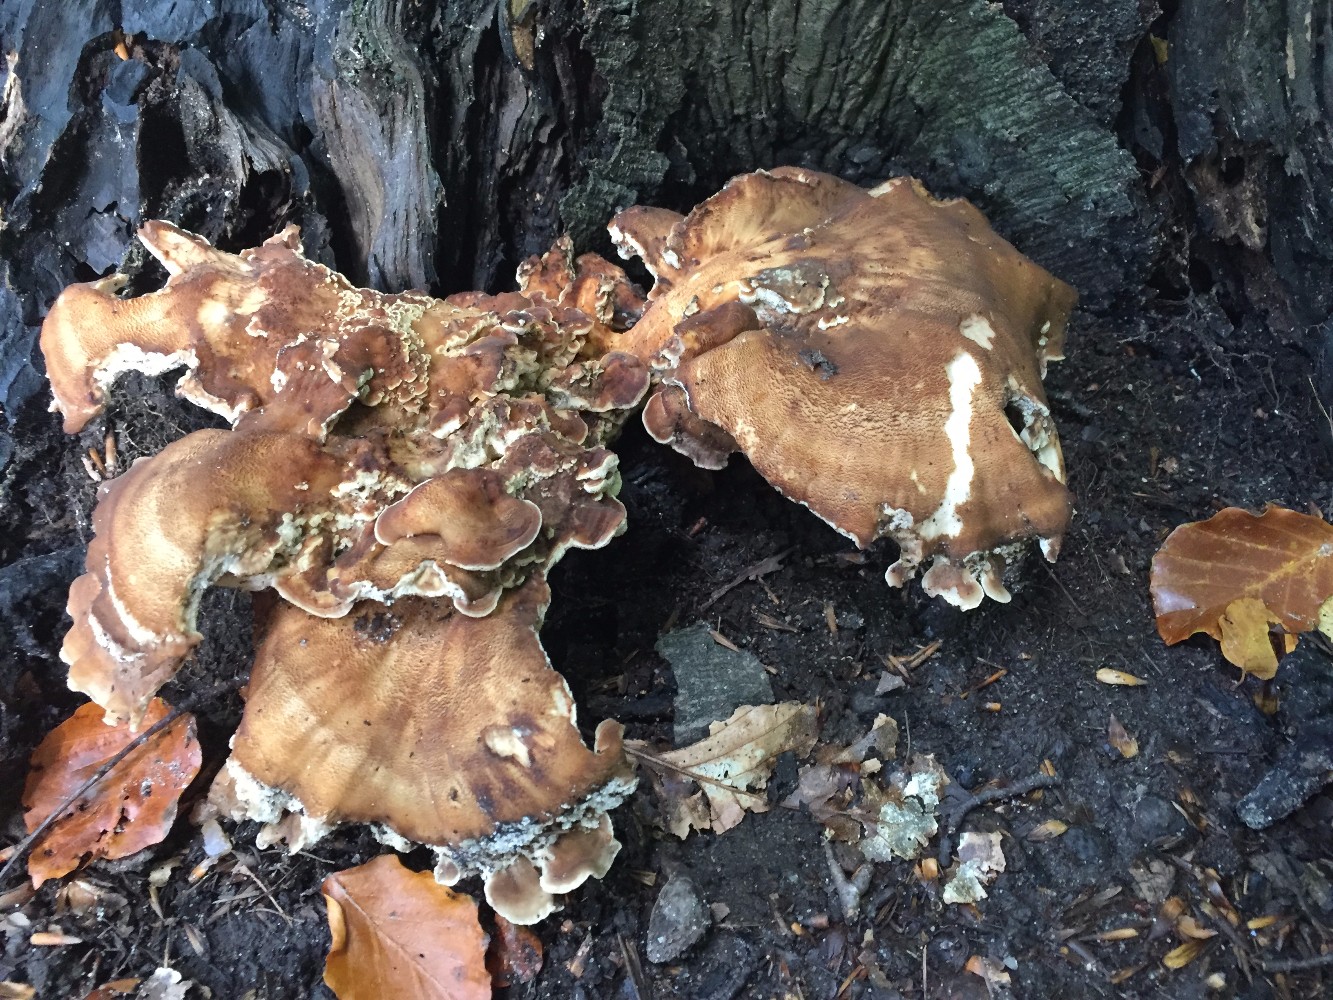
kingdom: Fungi
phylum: Basidiomycota
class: Agaricomycetes
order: Polyporales
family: Meripilaceae
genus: Meripilus
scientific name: Meripilus giganteus
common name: kæmpeporesvamp
